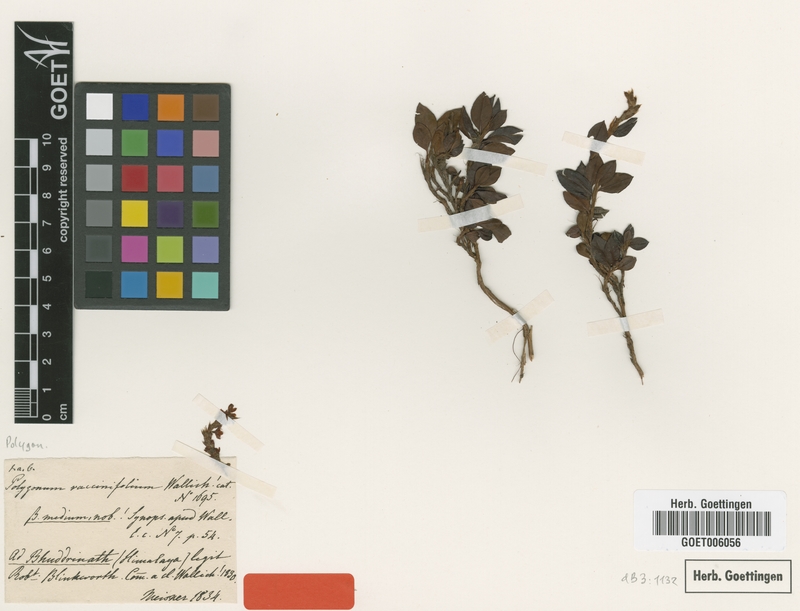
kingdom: Plantae
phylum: Tracheophyta
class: Magnoliopsida
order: Caryophyllales
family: Polygonaceae
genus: Bistorta
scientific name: Bistorta vacciniifolia
